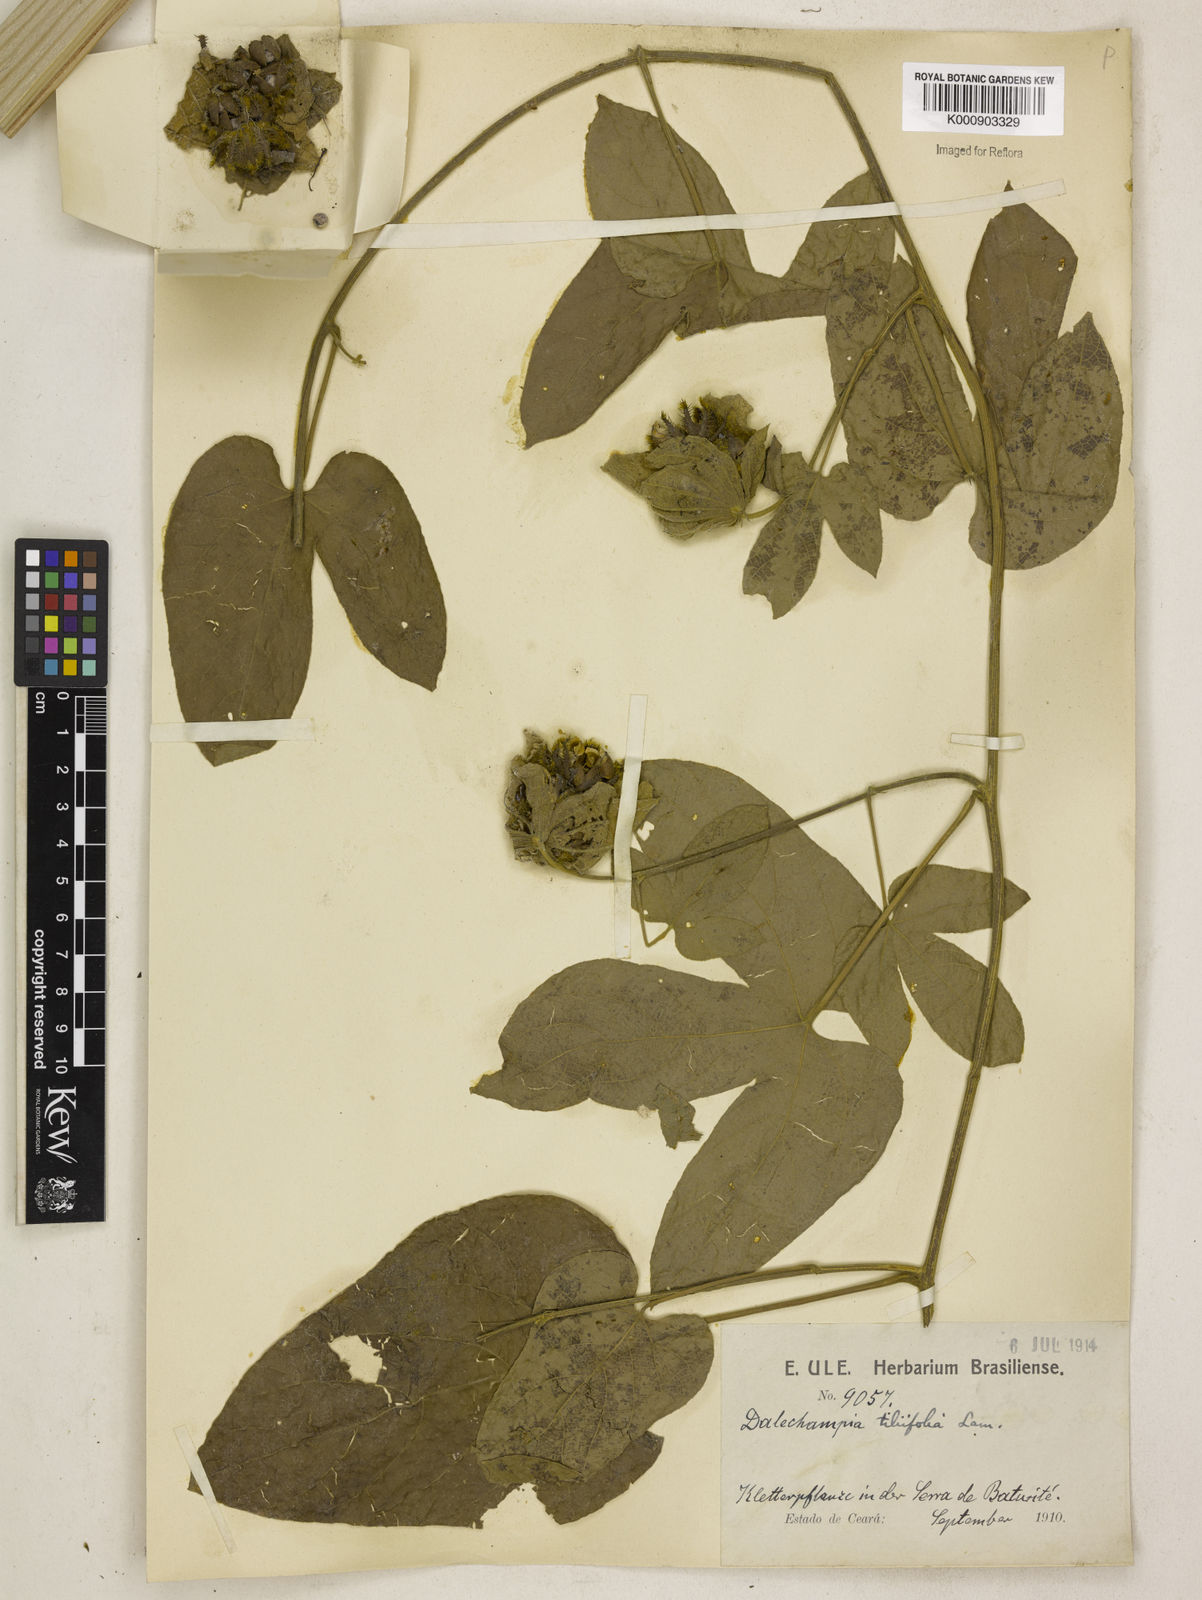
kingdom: Plantae
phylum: Tracheophyta
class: Magnoliopsida
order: Malpighiales
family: Euphorbiaceae
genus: Dalechampia
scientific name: Dalechampia tiliifolia
